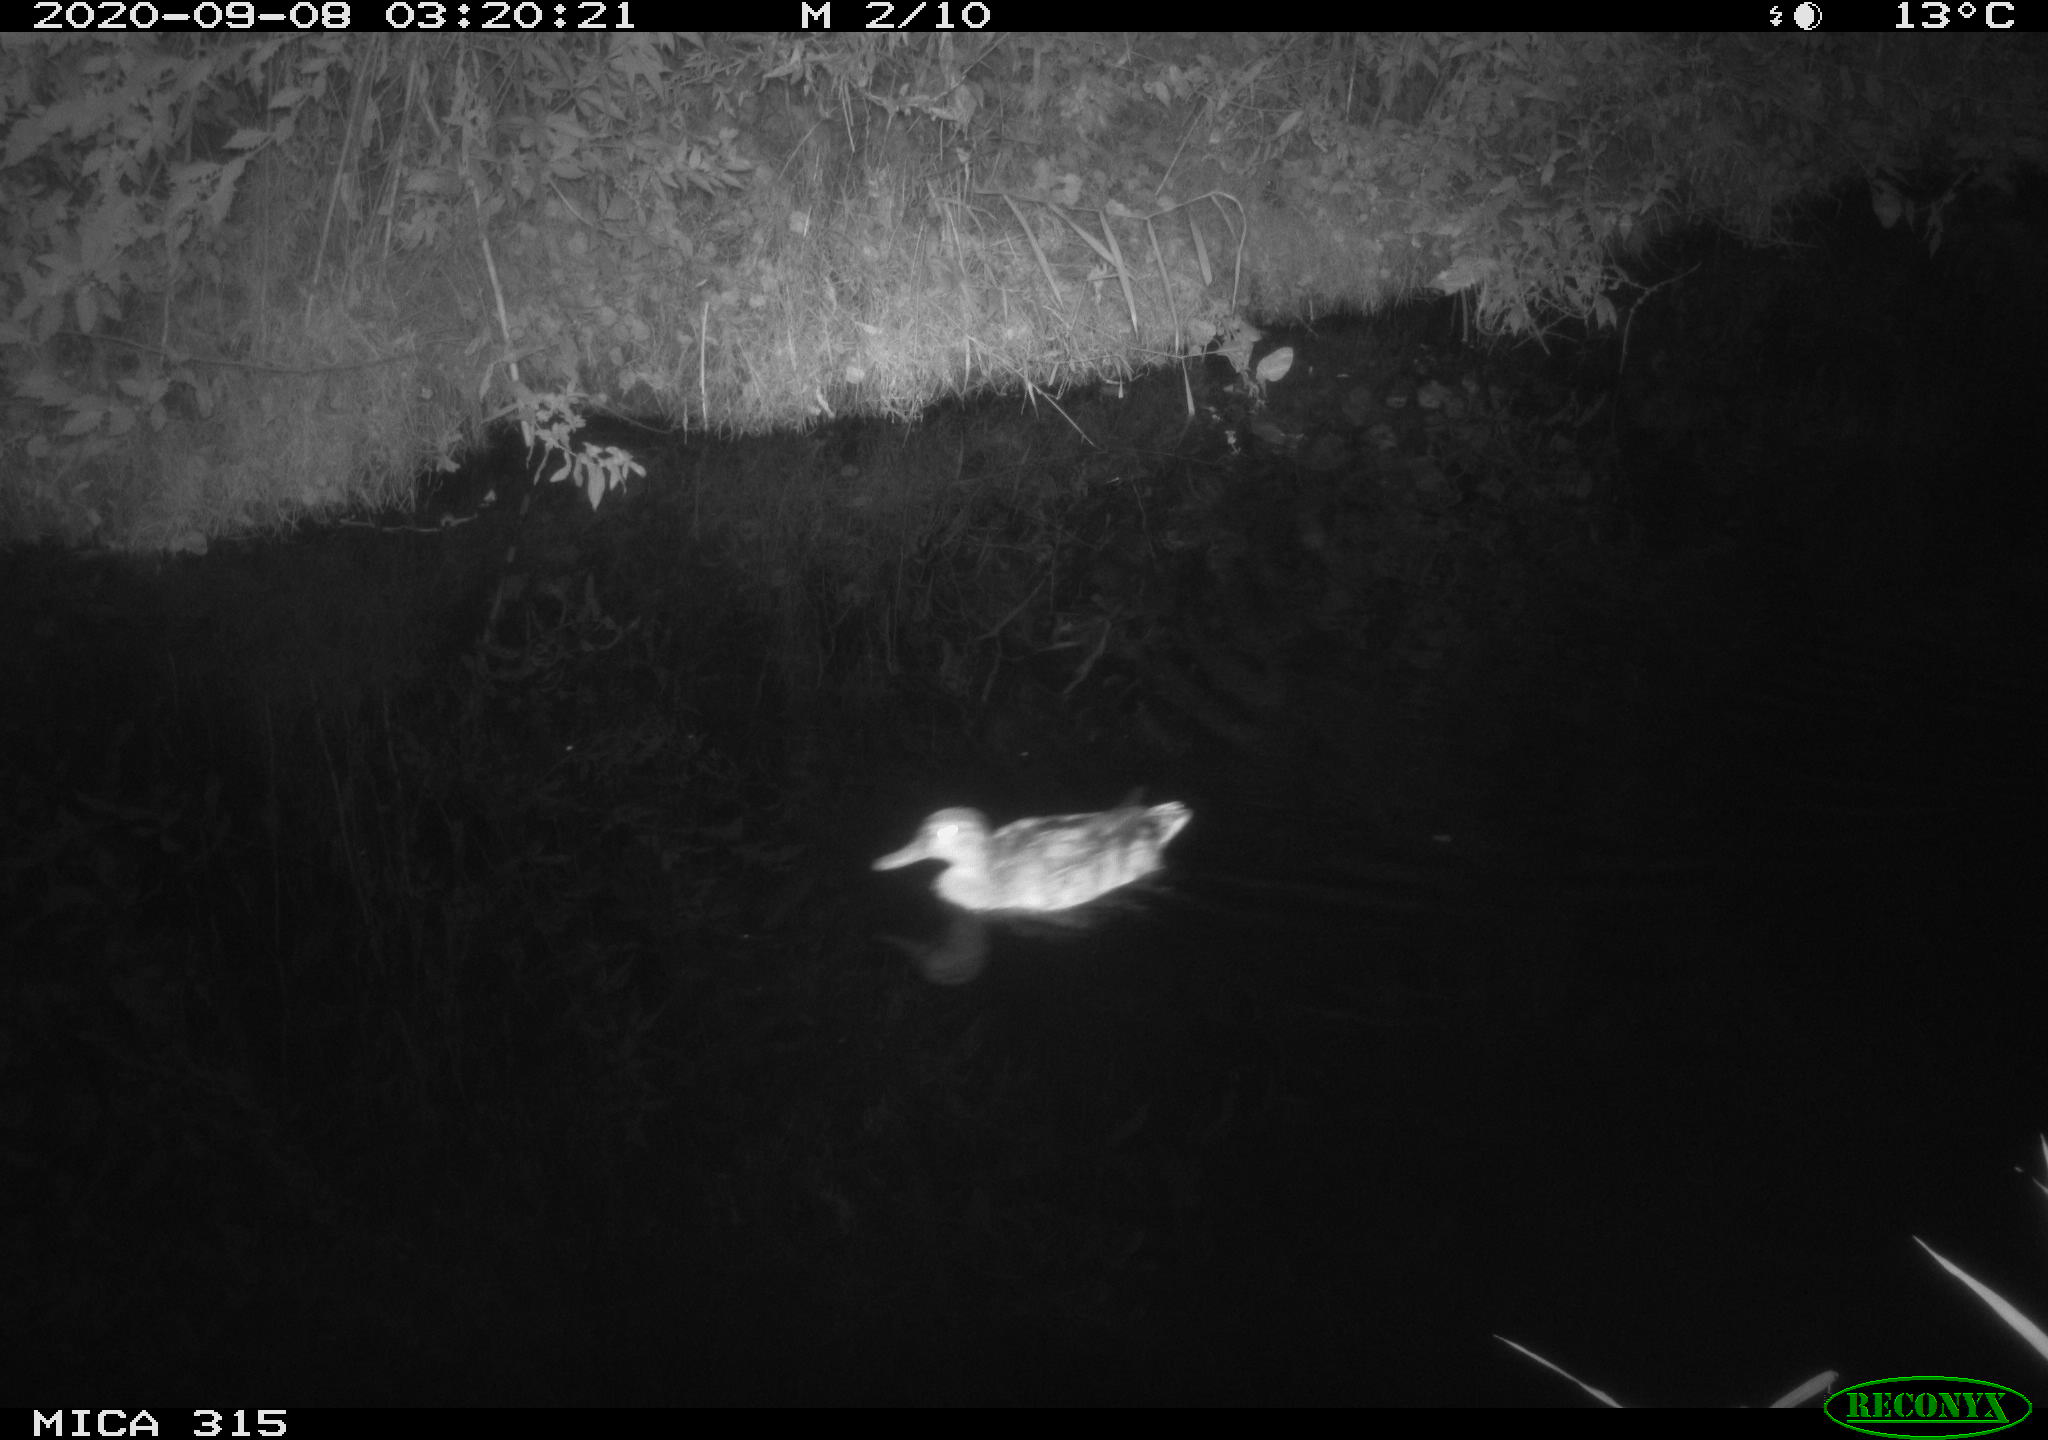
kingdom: Animalia
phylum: Chordata
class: Aves
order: Anseriformes
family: Anatidae
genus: Anas
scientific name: Anas platyrhynchos
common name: Mallard
